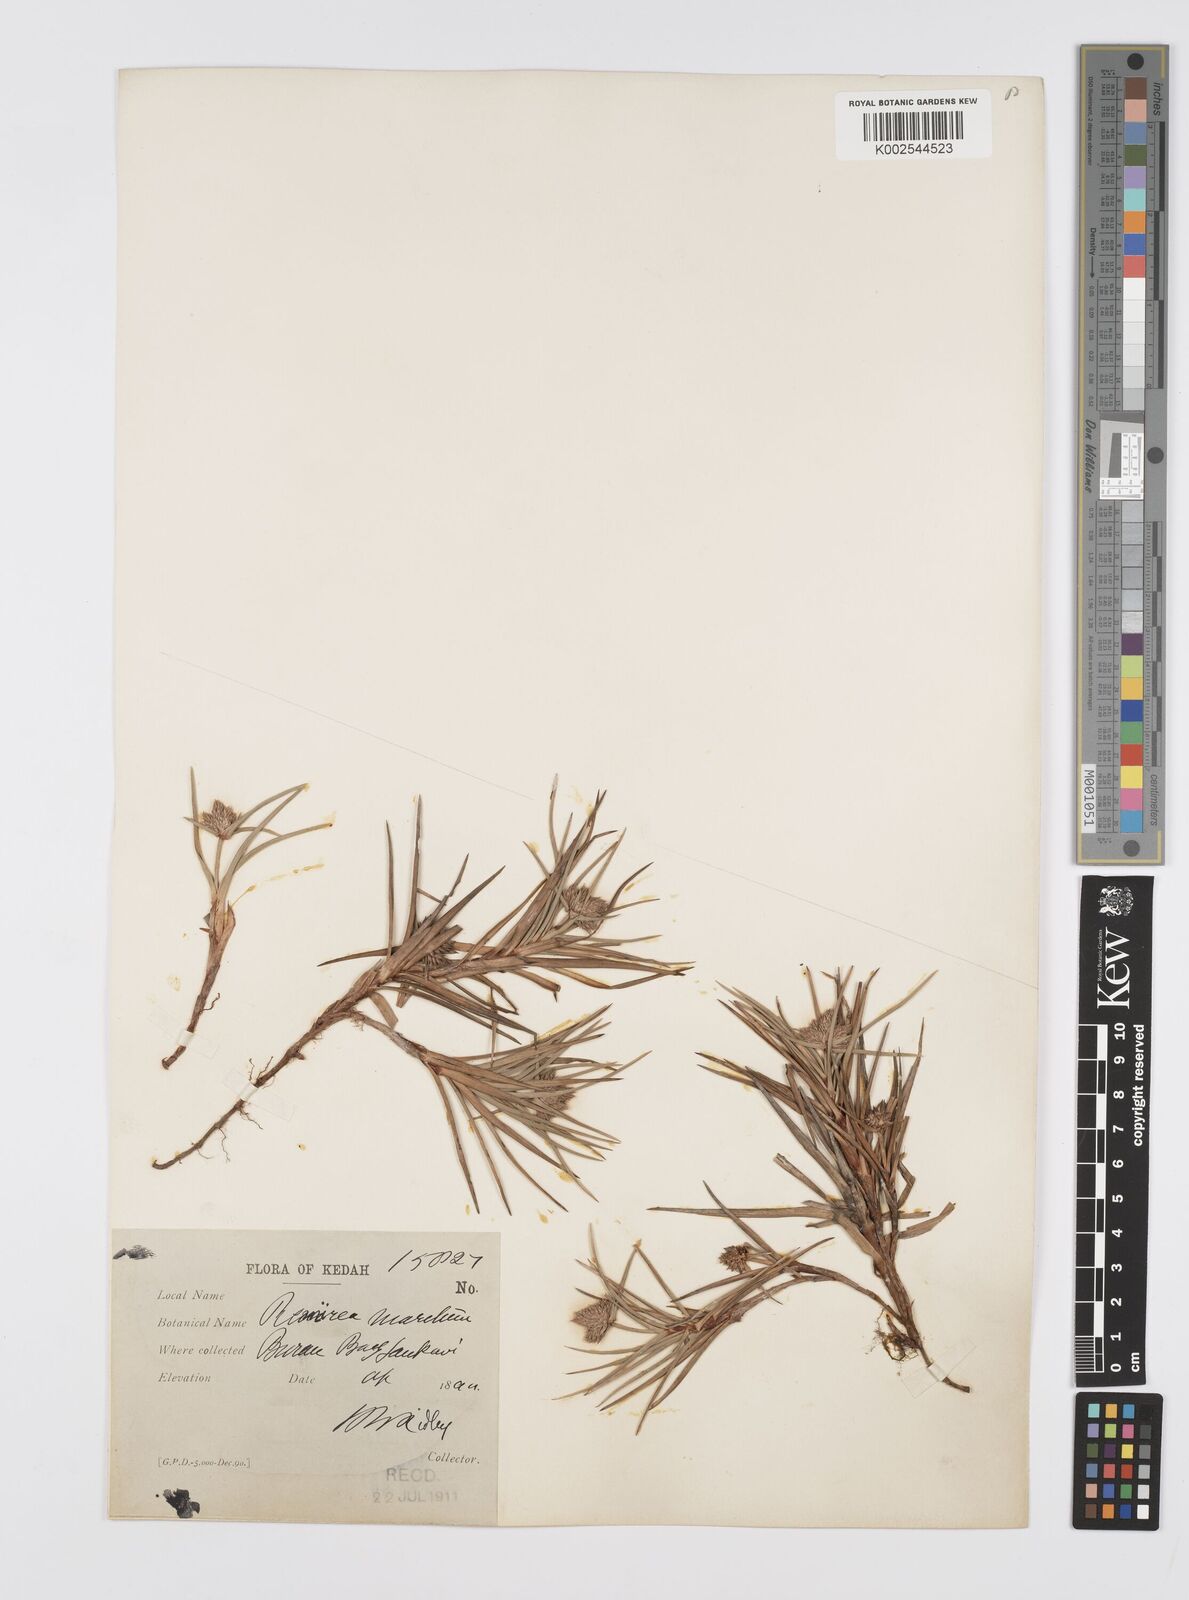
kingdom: Plantae
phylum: Tracheophyta
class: Liliopsida
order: Poales
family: Cyperaceae
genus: Cyperus
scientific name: Cyperus
